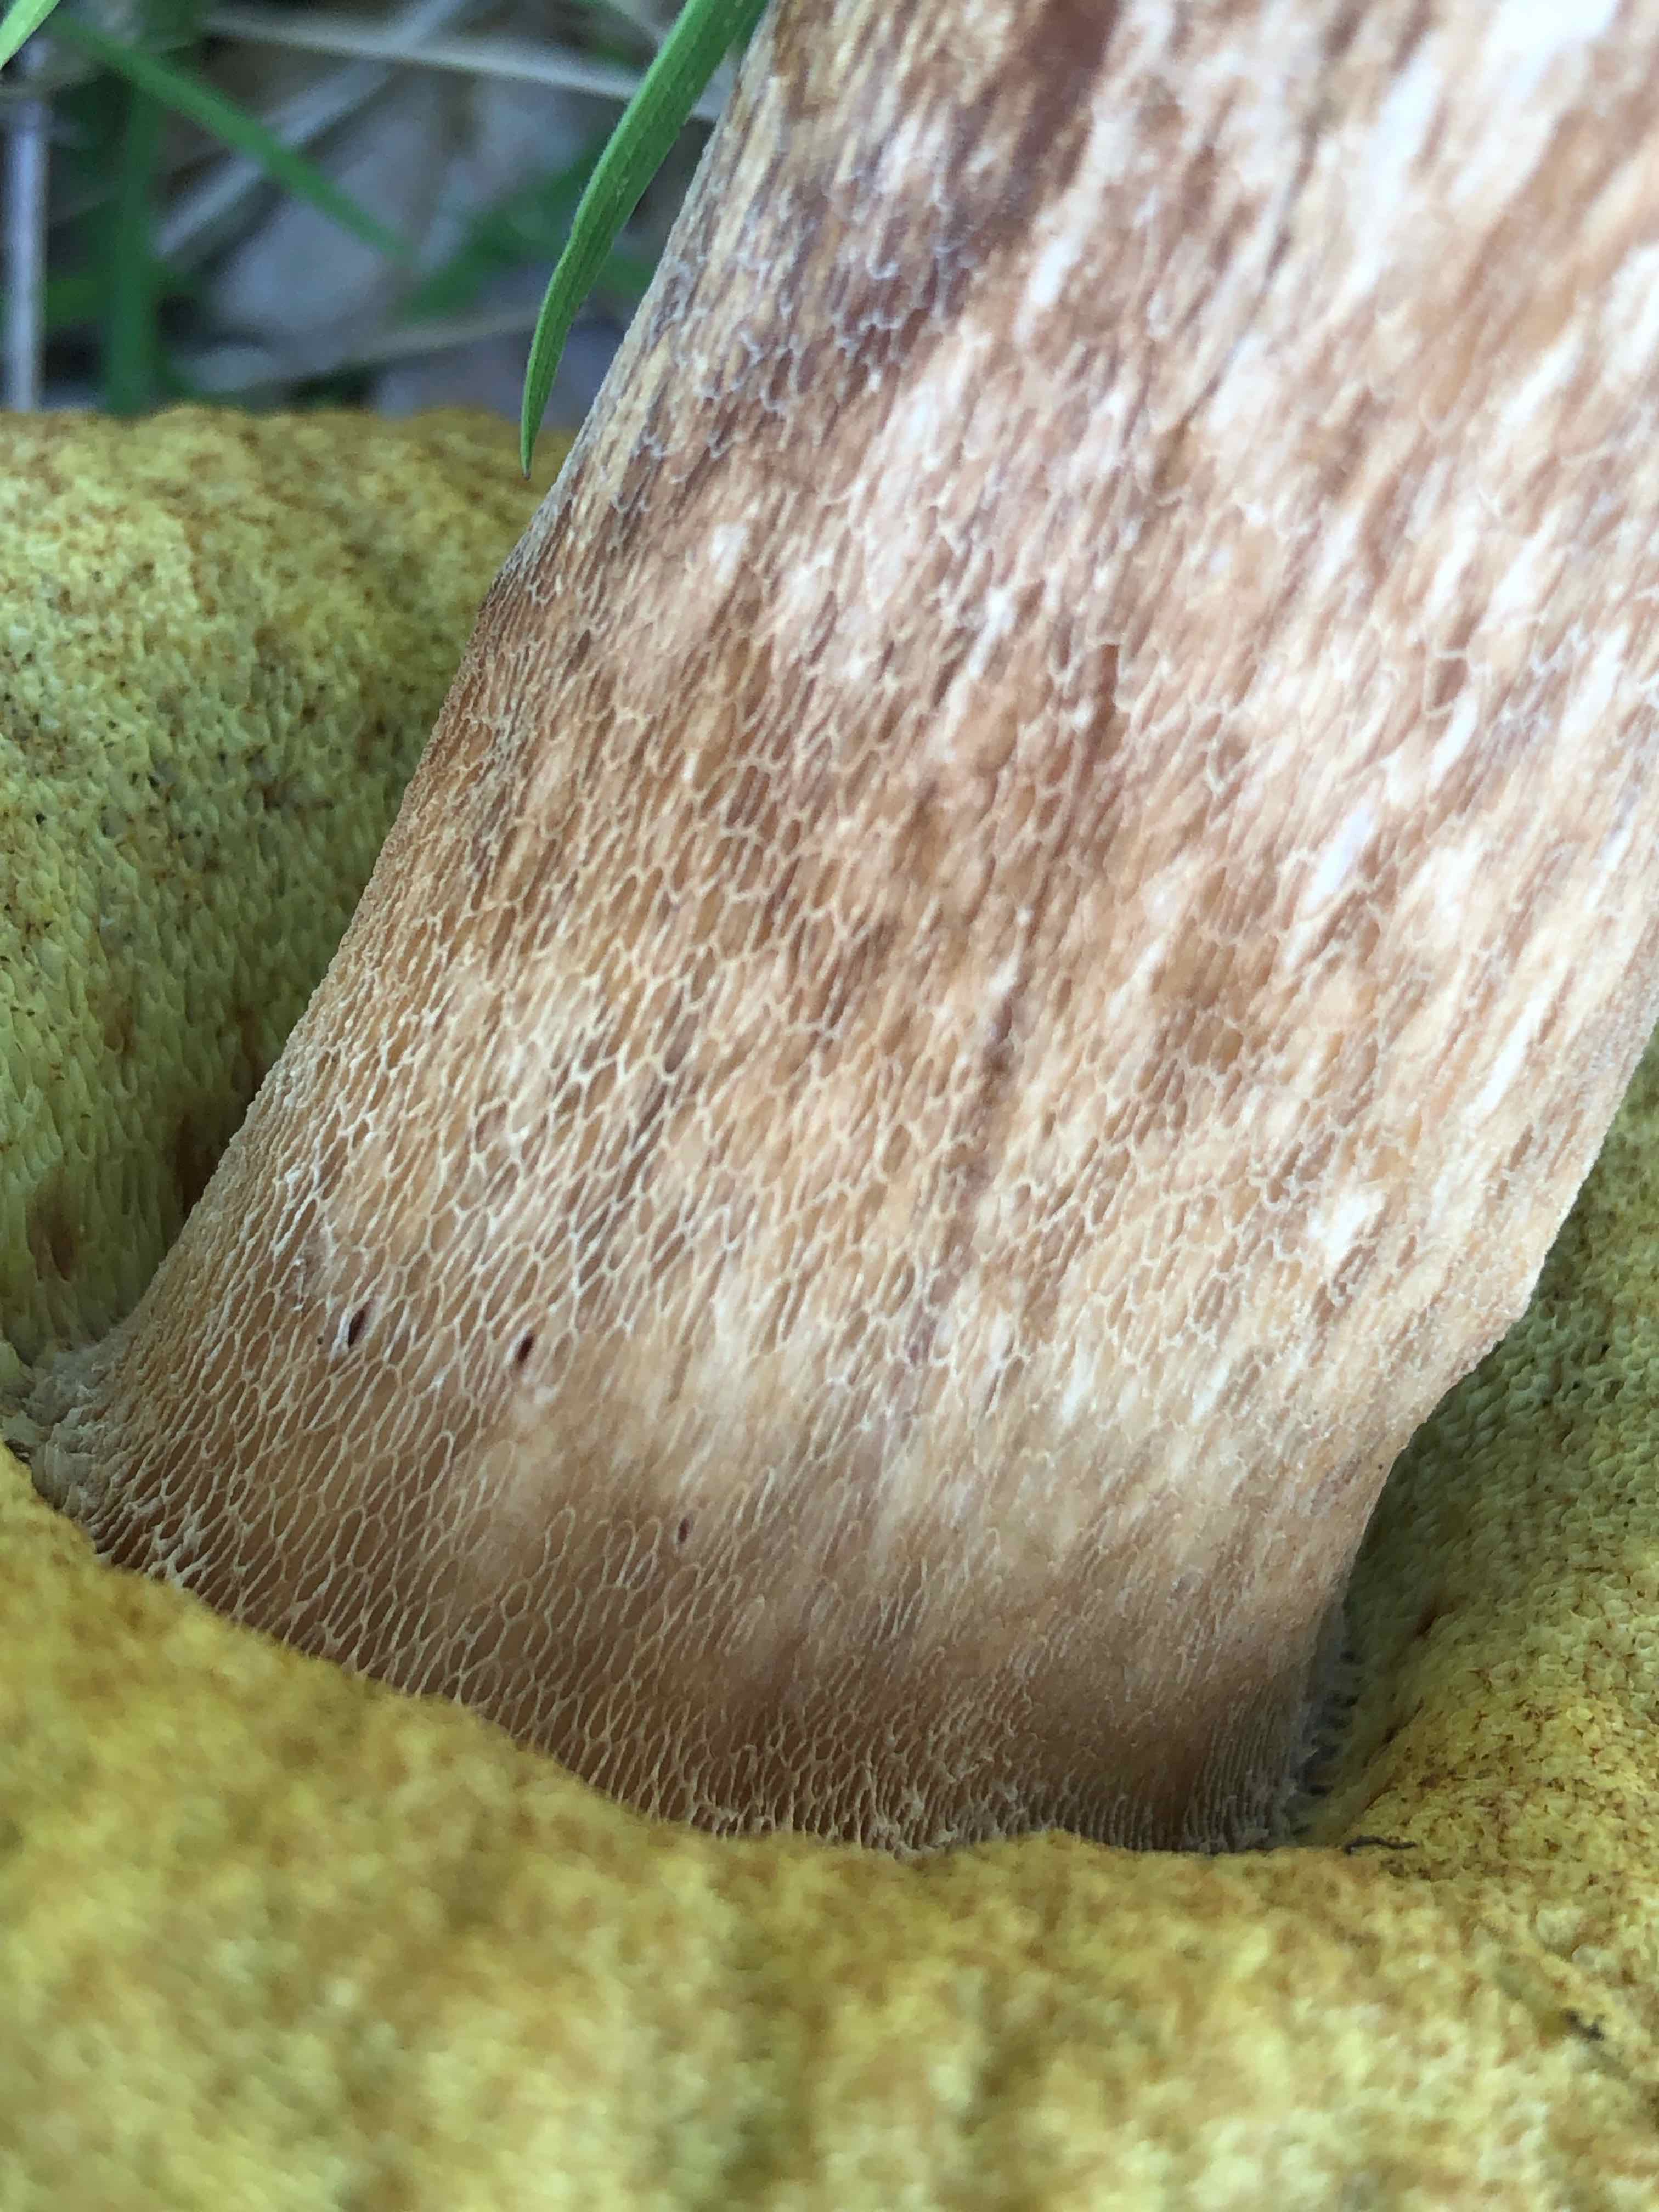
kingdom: Fungi
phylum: Basidiomycota
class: Agaricomycetes
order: Boletales
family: Boletaceae
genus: Boletus
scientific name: Boletus edulis
